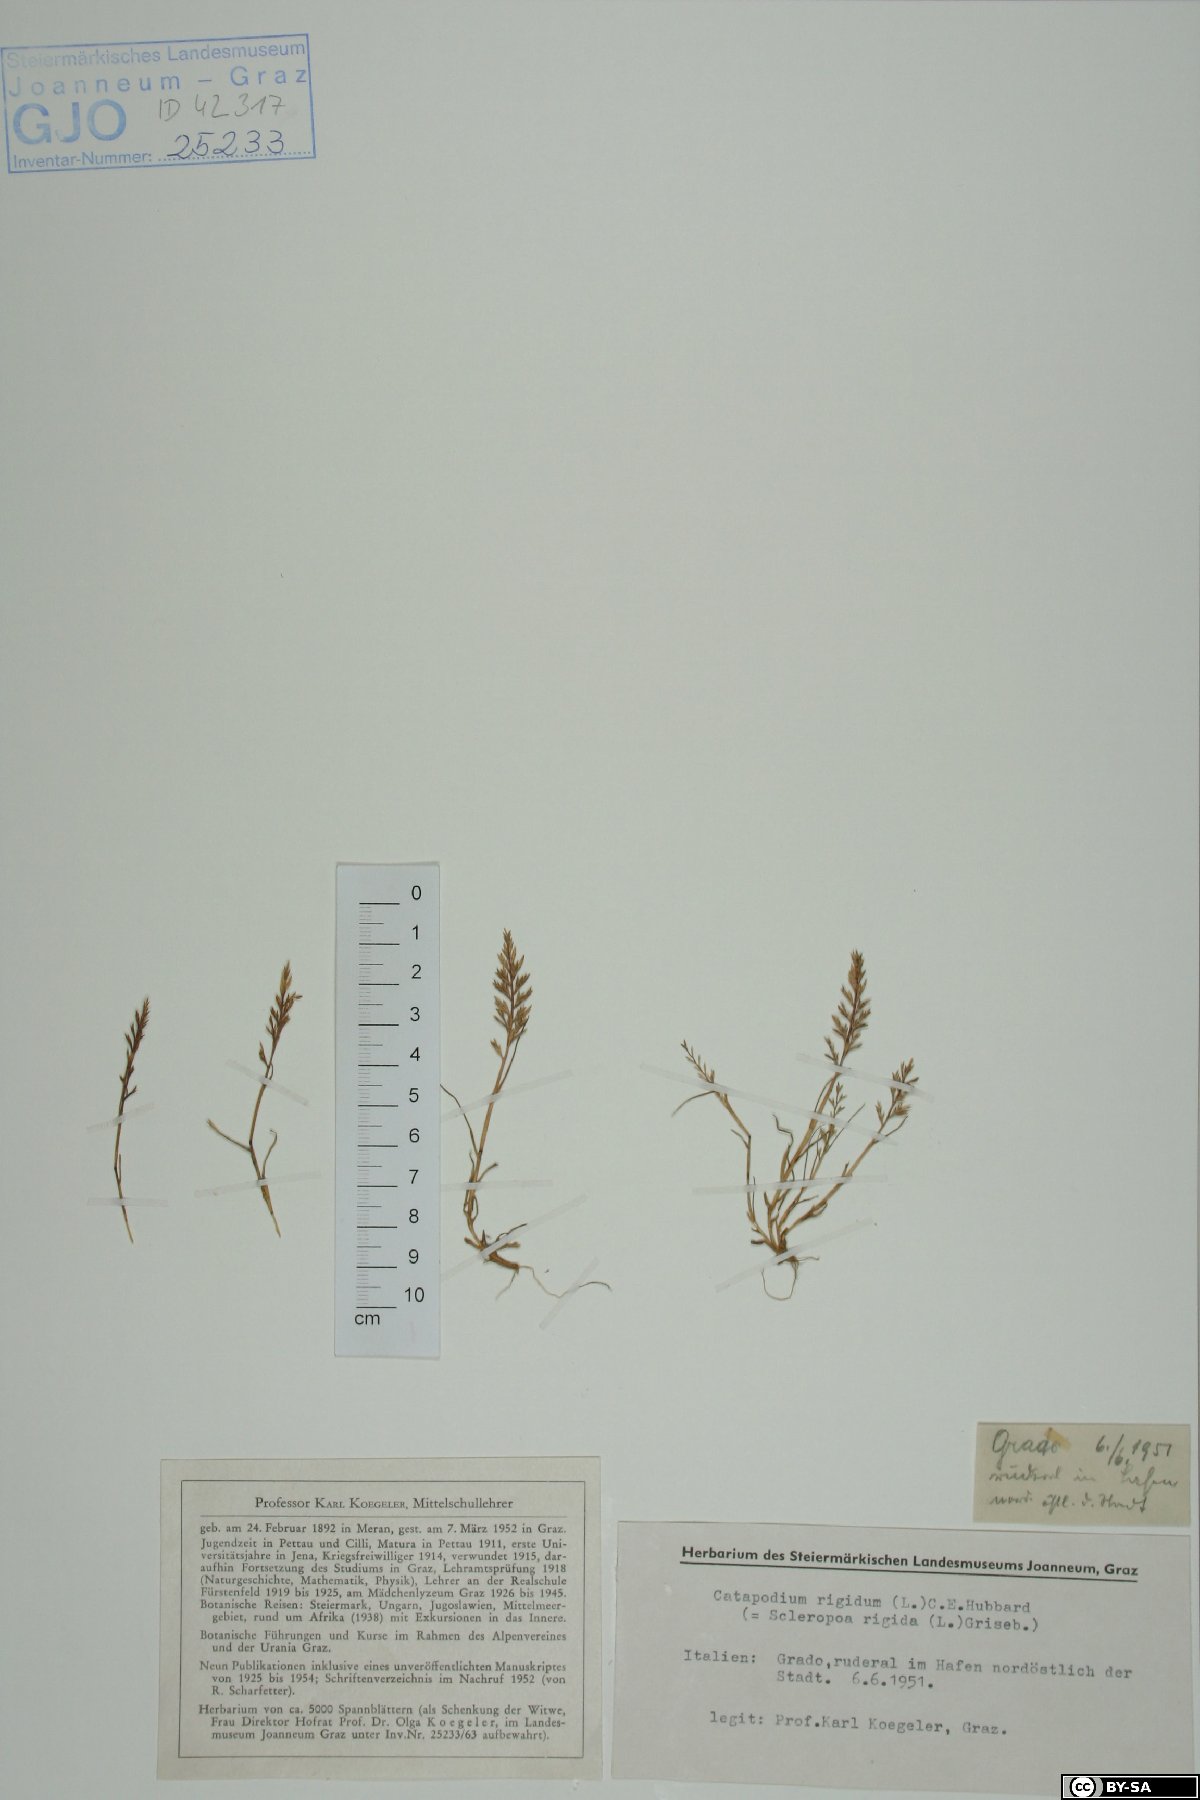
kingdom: Plantae
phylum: Tracheophyta
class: Liliopsida
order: Poales
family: Poaceae
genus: Catapodium
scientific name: Catapodium rigidum
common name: Fern-grass
